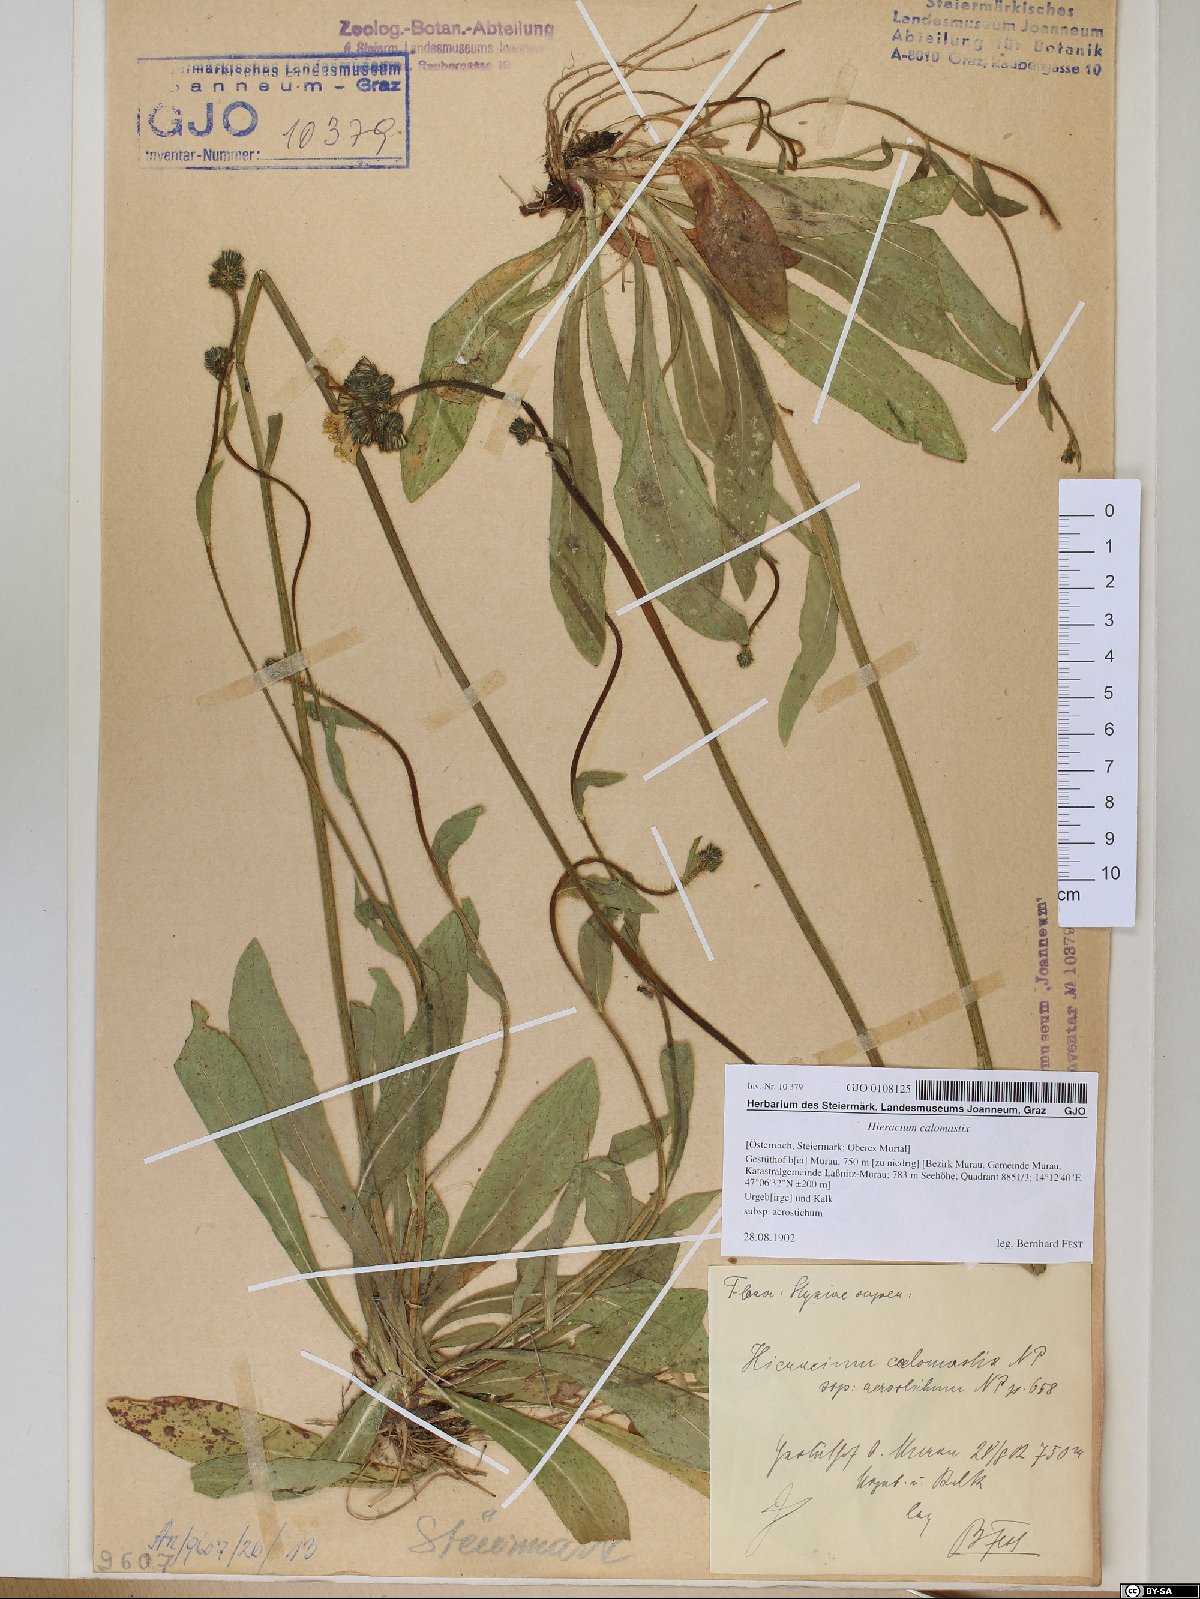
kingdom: Plantae
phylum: Tracheophyta
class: Magnoliopsida
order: Asterales
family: Asteraceae
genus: Pilosella
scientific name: Pilosella calomastix
